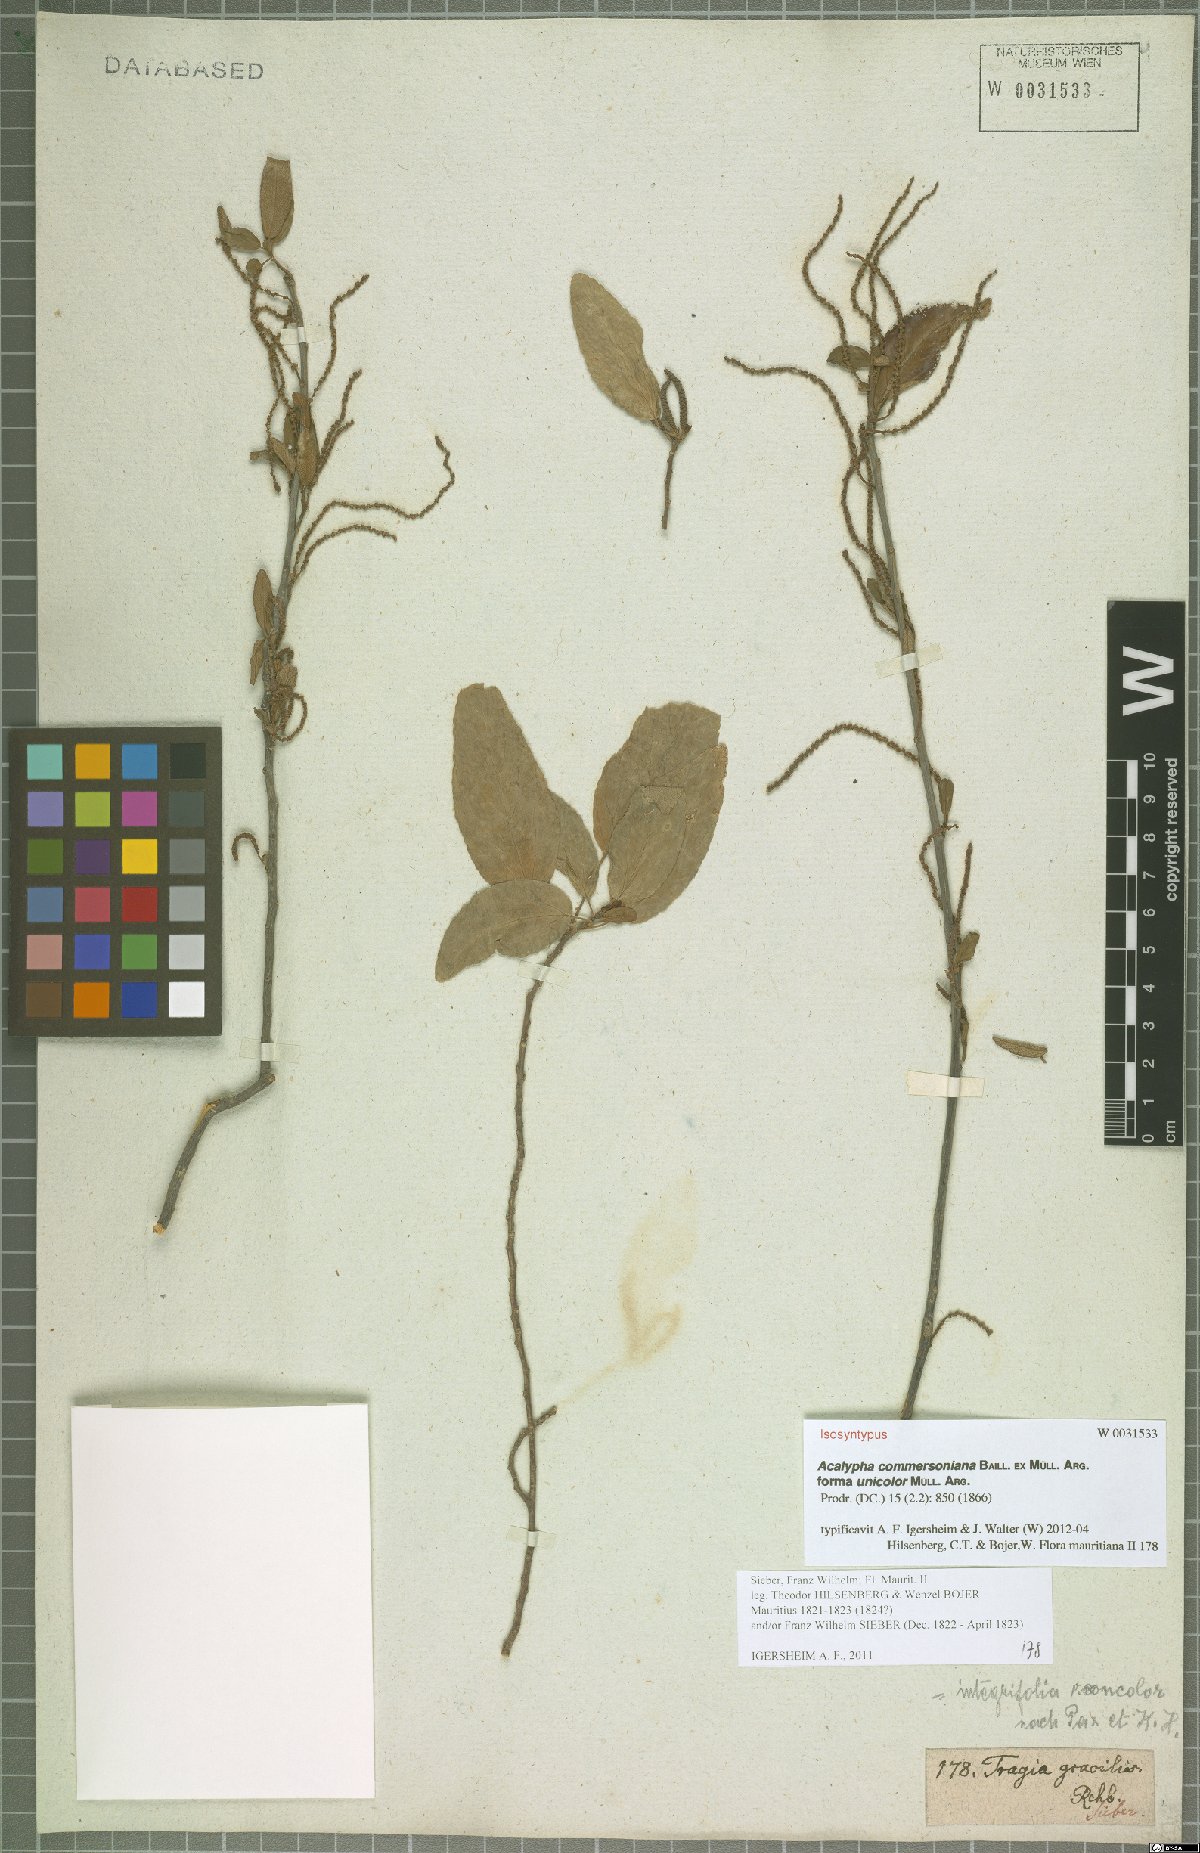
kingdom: Plantae
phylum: Tracheophyta
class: Magnoliopsida
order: Malpighiales
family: Euphorbiaceae
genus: Acalypha
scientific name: Acalypha integrifolia
